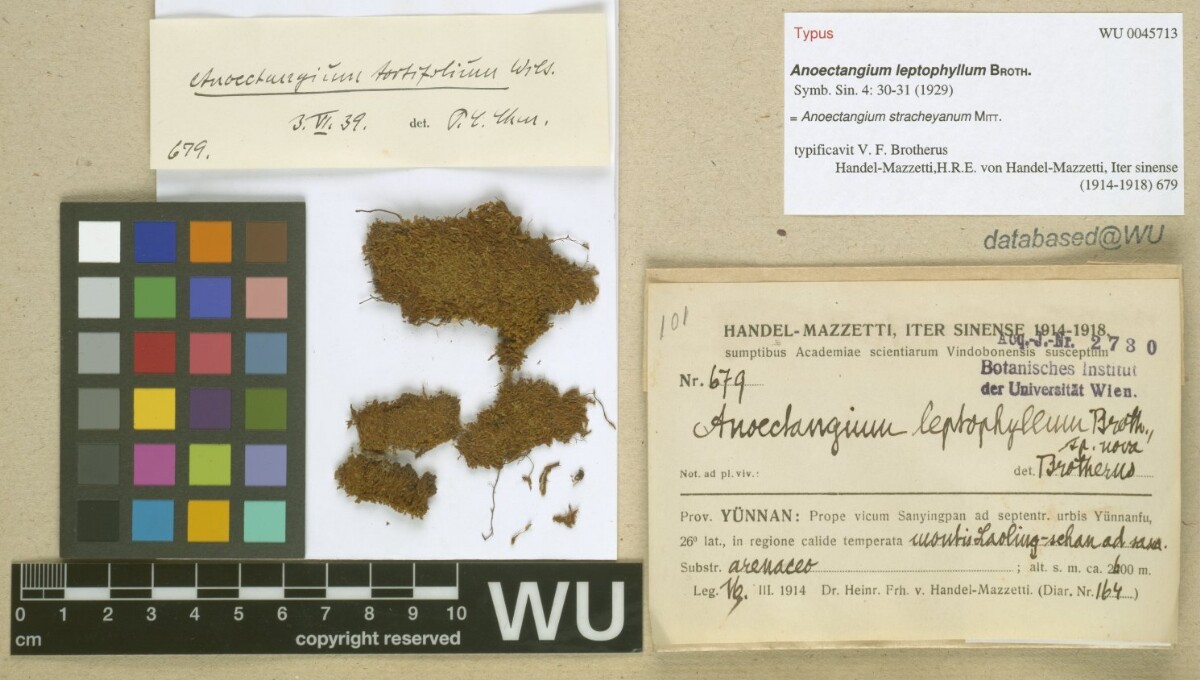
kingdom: Plantae
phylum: Bryophyta
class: Bryopsida
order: Pottiales
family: Pottiaceae
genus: Anoectangium
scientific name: Anoectangium stracheyanum
